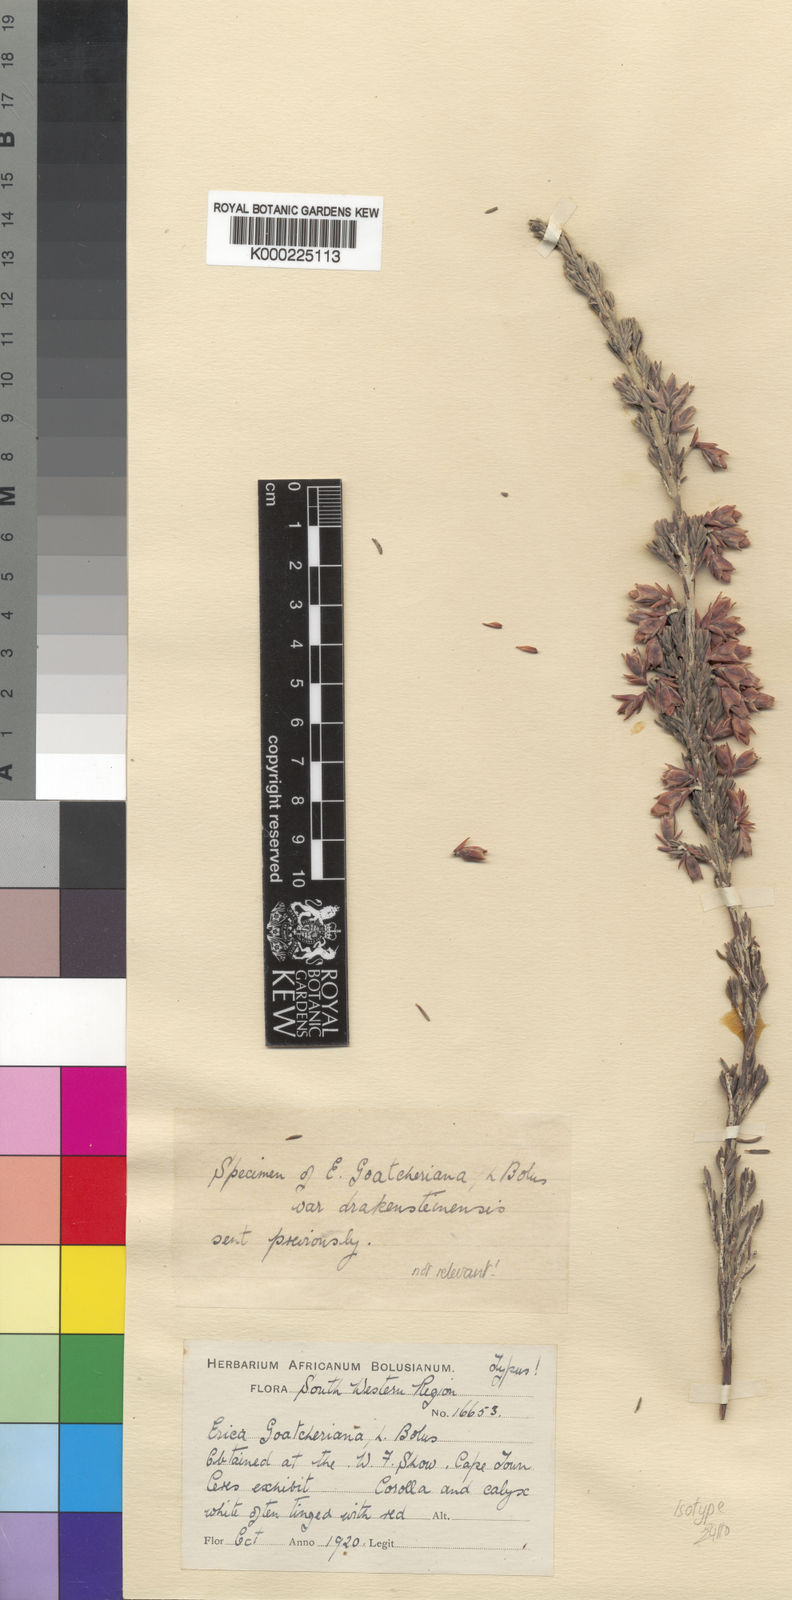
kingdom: Plantae
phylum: Tracheophyta
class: Magnoliopsida
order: Ericales
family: Ericaceae
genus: Erica
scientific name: Erica goatcheriana
